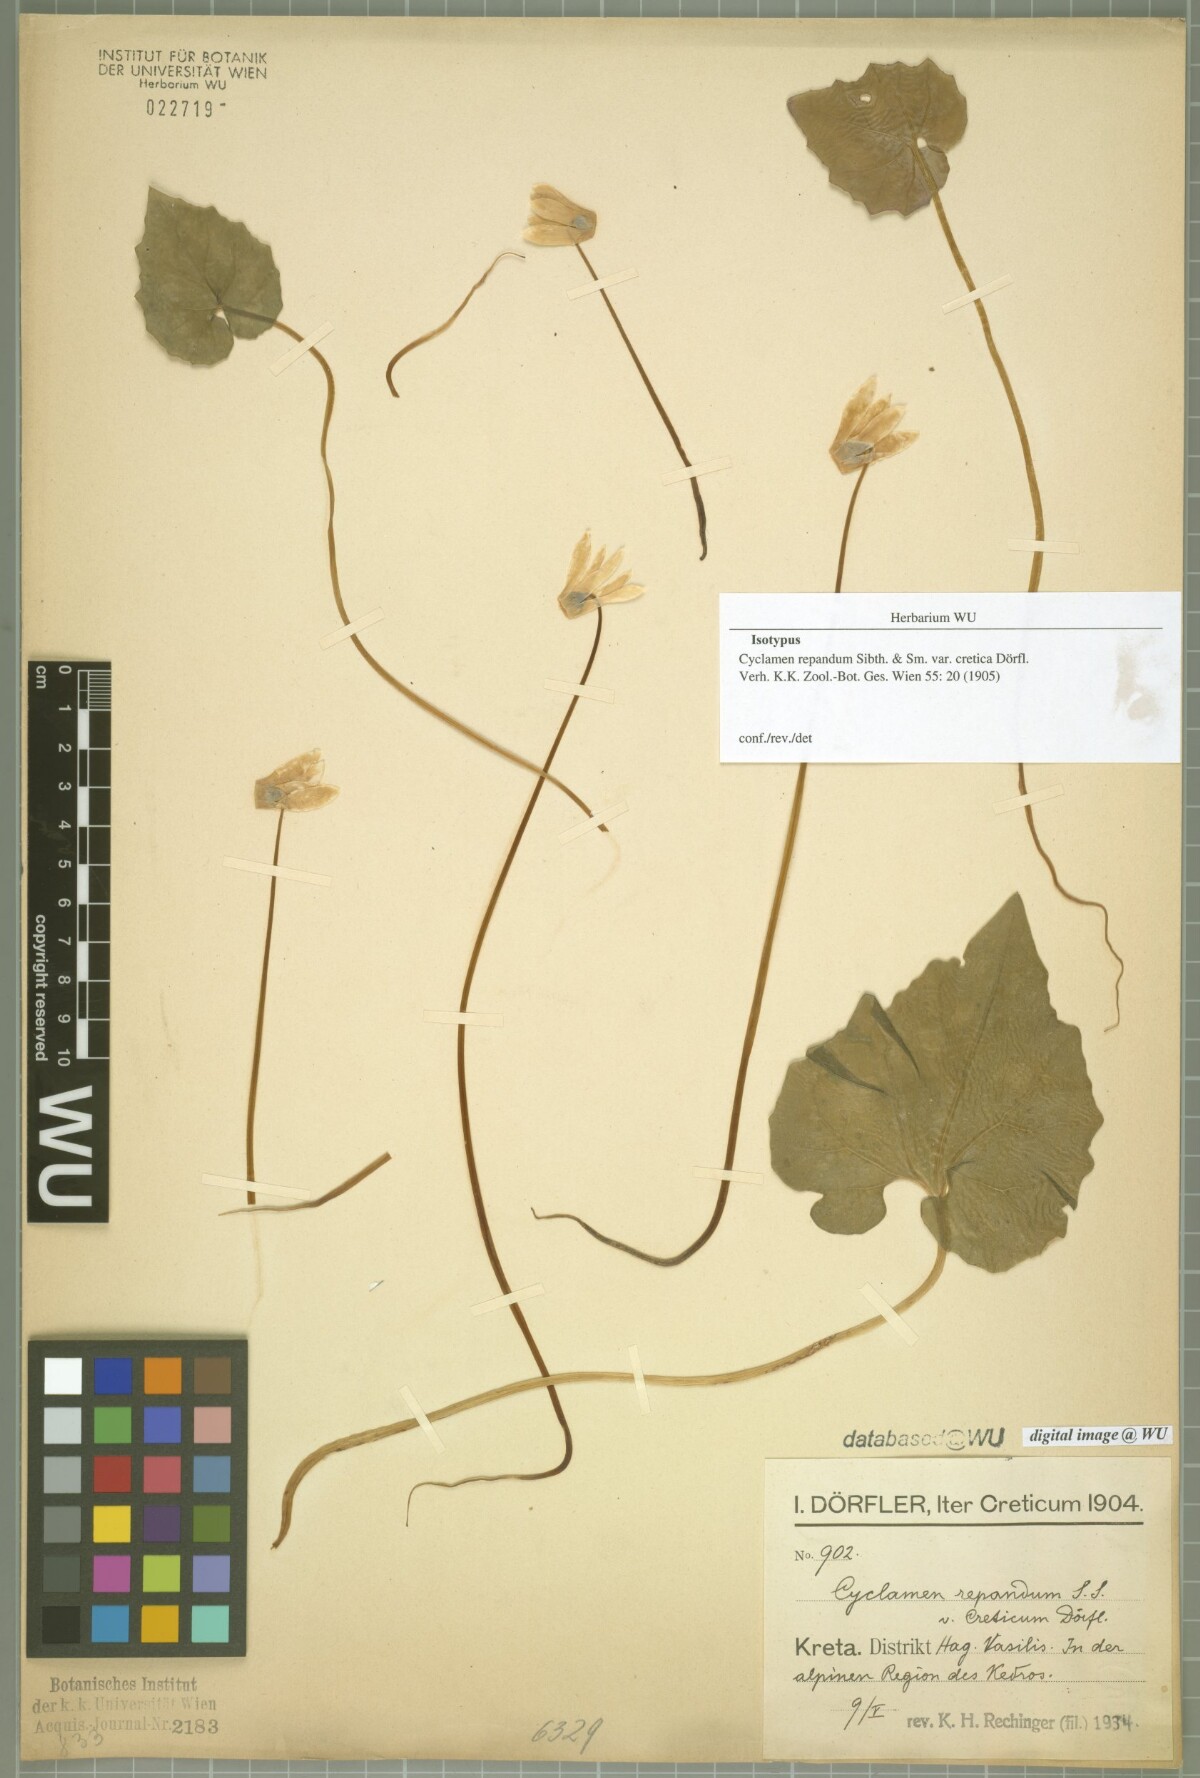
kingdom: Plantae
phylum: Tracheophyta
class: Magnoliopsida
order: Ericales
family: Primulaceae
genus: Cyclamen
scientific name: Cyclamen creticum
